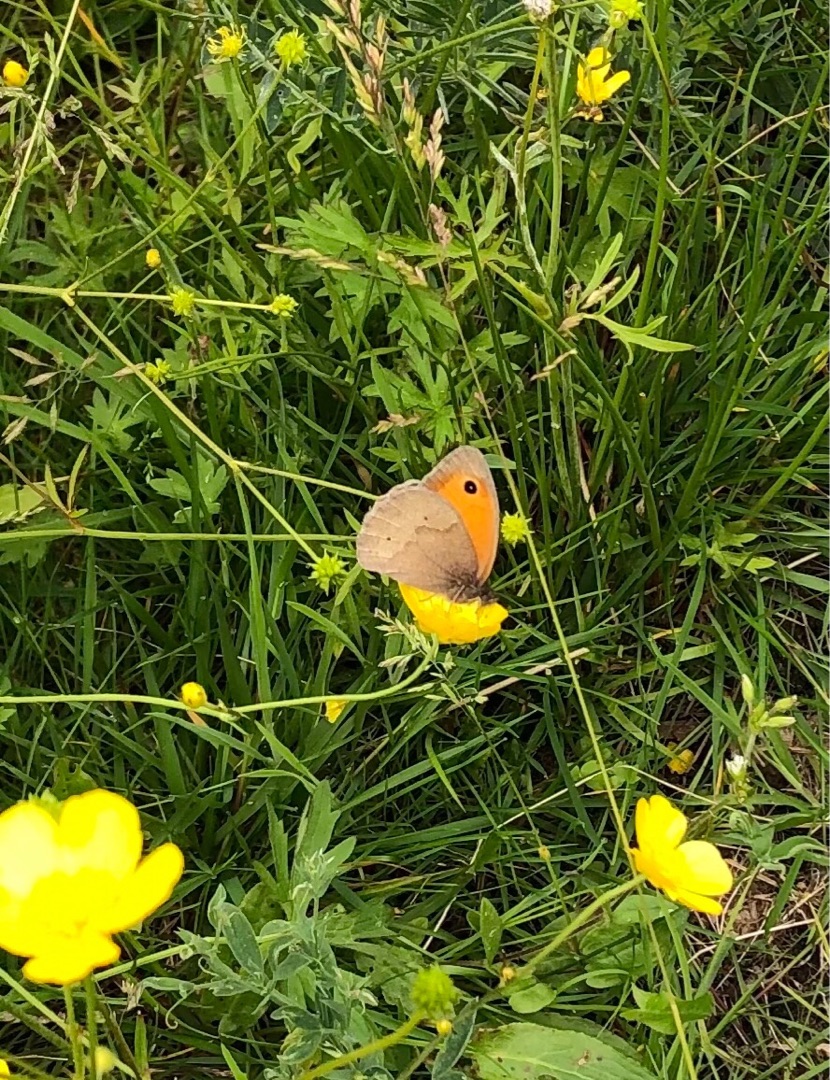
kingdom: Animalia
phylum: Arthropoda
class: Insecta
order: Lepidoptera
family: Nymphalidae
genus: Maniola
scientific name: Maniola jurtina
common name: Græsrandøje
